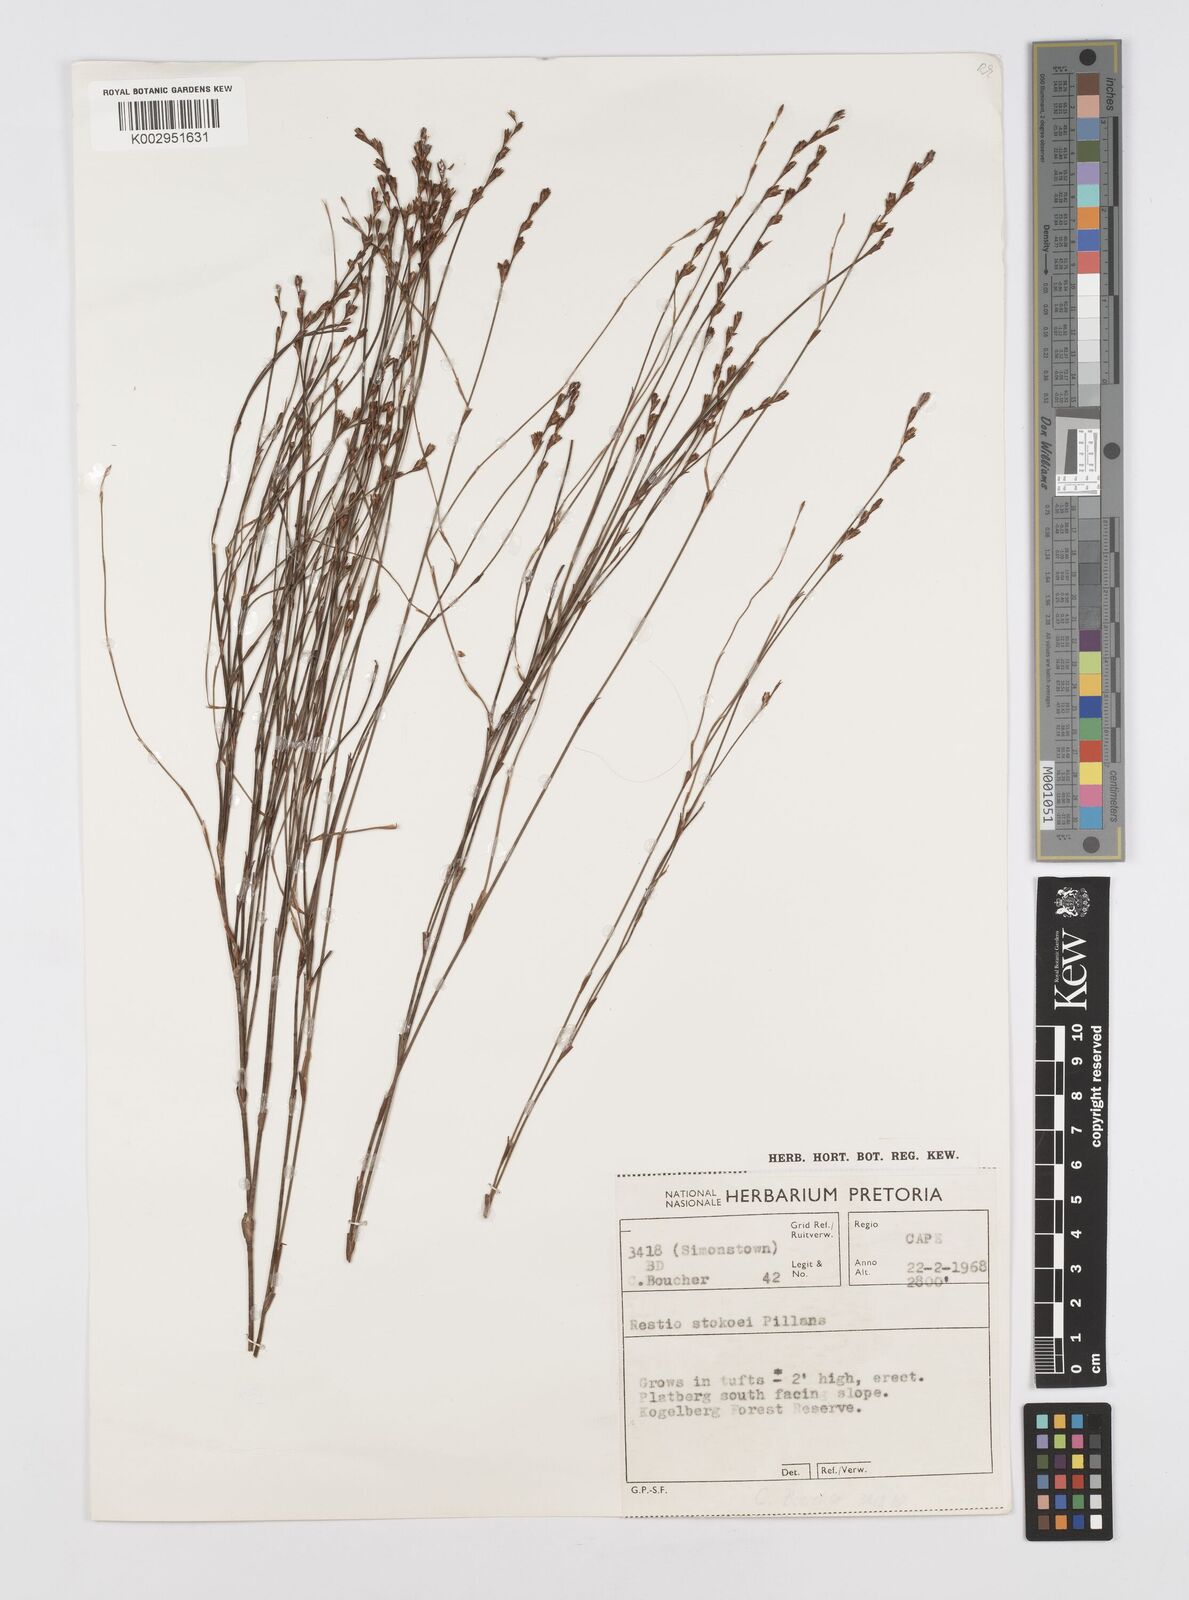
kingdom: Plantae
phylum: Tracheophyta
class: Liliopsida
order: Poales
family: Restionaceae
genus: Restio
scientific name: Restio stokoei
